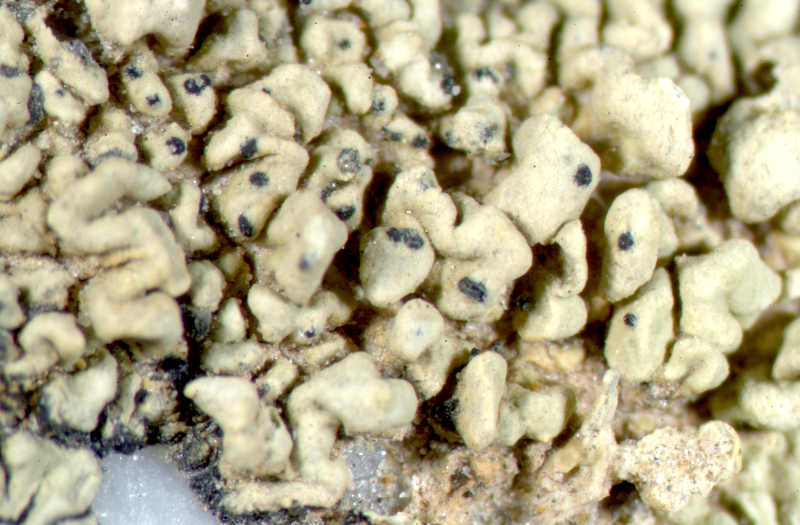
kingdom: Fungi
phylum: Ascomycota
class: Lecanoromycetes
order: Lecideales
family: Lecideaceae
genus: Lecidea
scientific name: Lecidea
